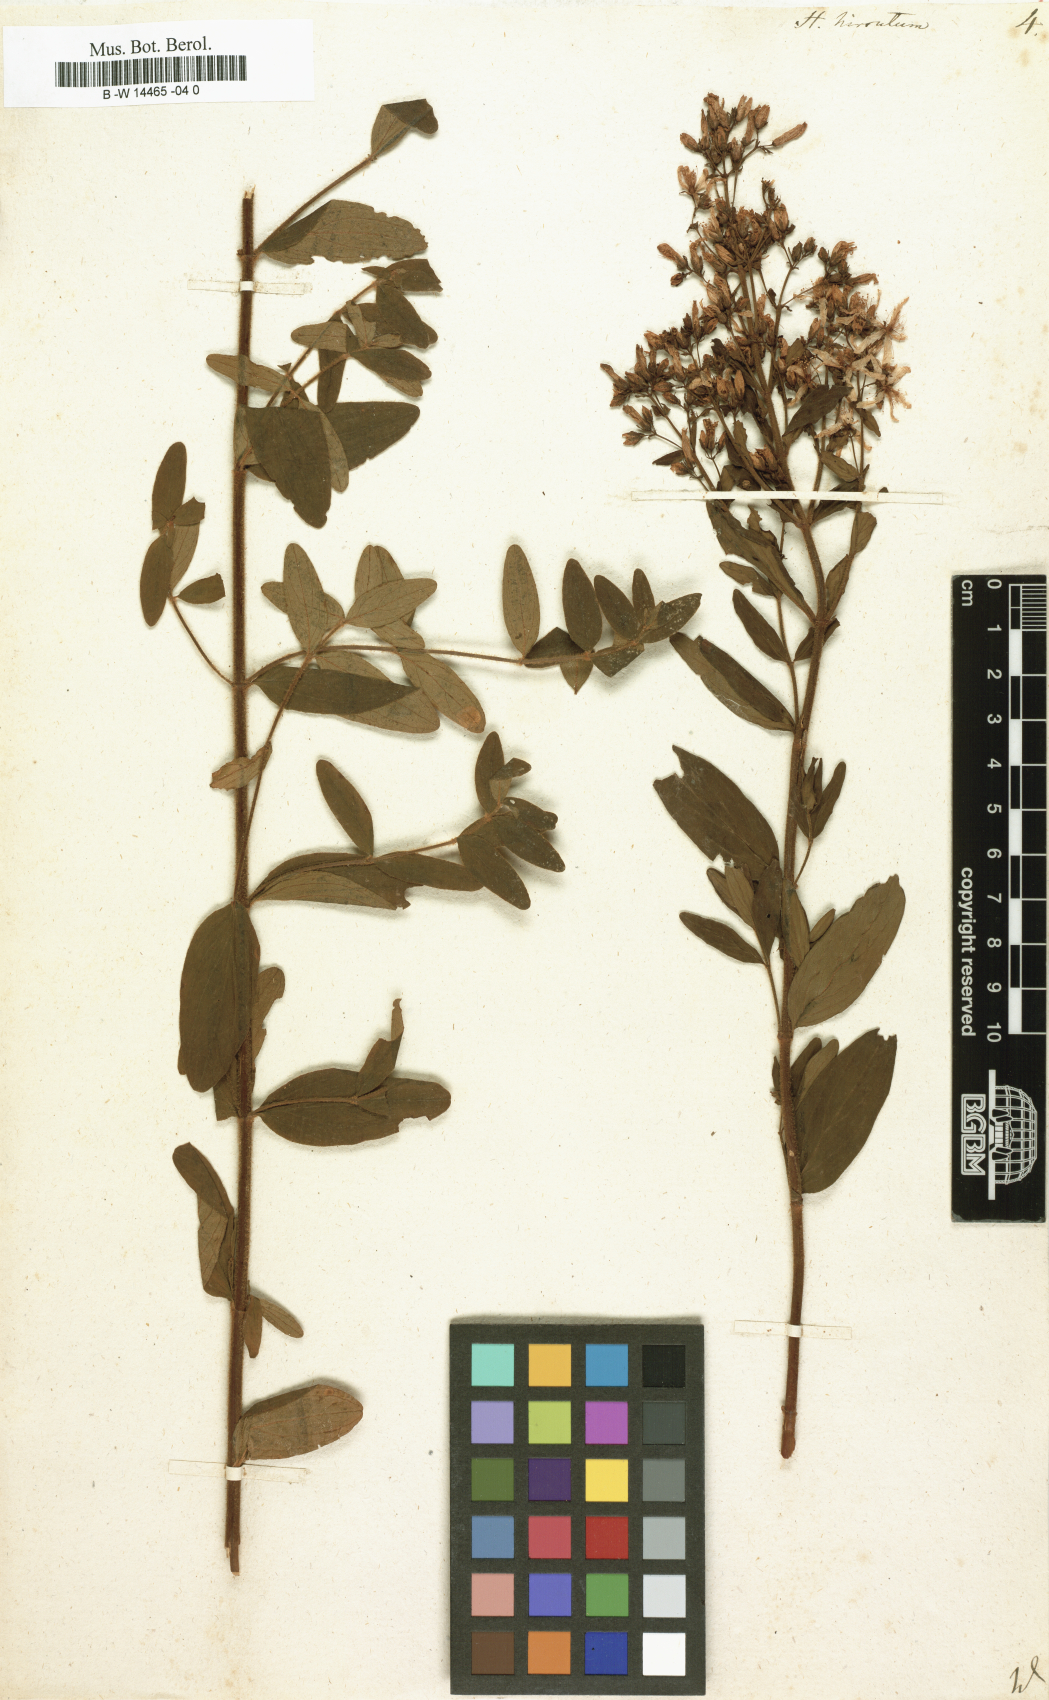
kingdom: Plantae
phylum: Tracheophyta
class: Magnoliopsida
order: Malpighiales
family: Hypericaceae
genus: Hypericum
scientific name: Hypericum hirsutum
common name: Hairy st. john's-wort
